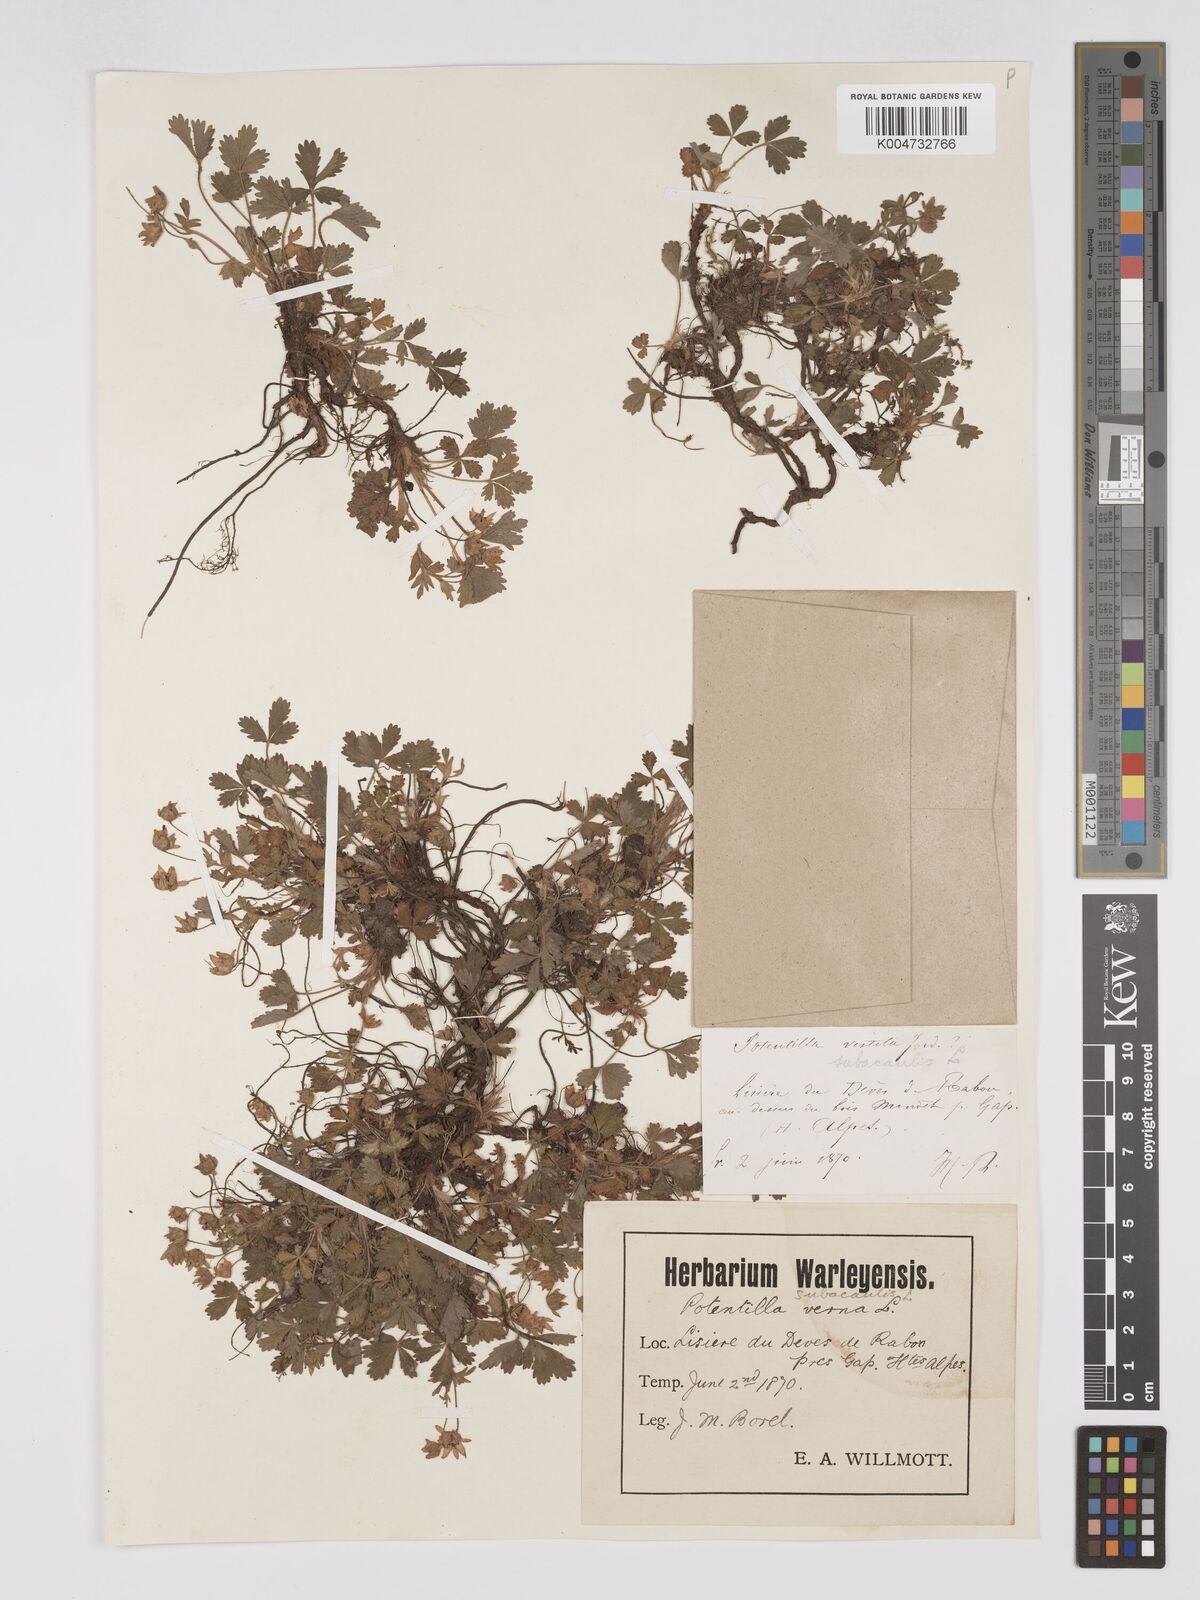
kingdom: Plantae
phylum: Tracheophyta
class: Magnoliopsida
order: Rosales
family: Rosaceae
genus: Potentilla
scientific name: Potentilla
